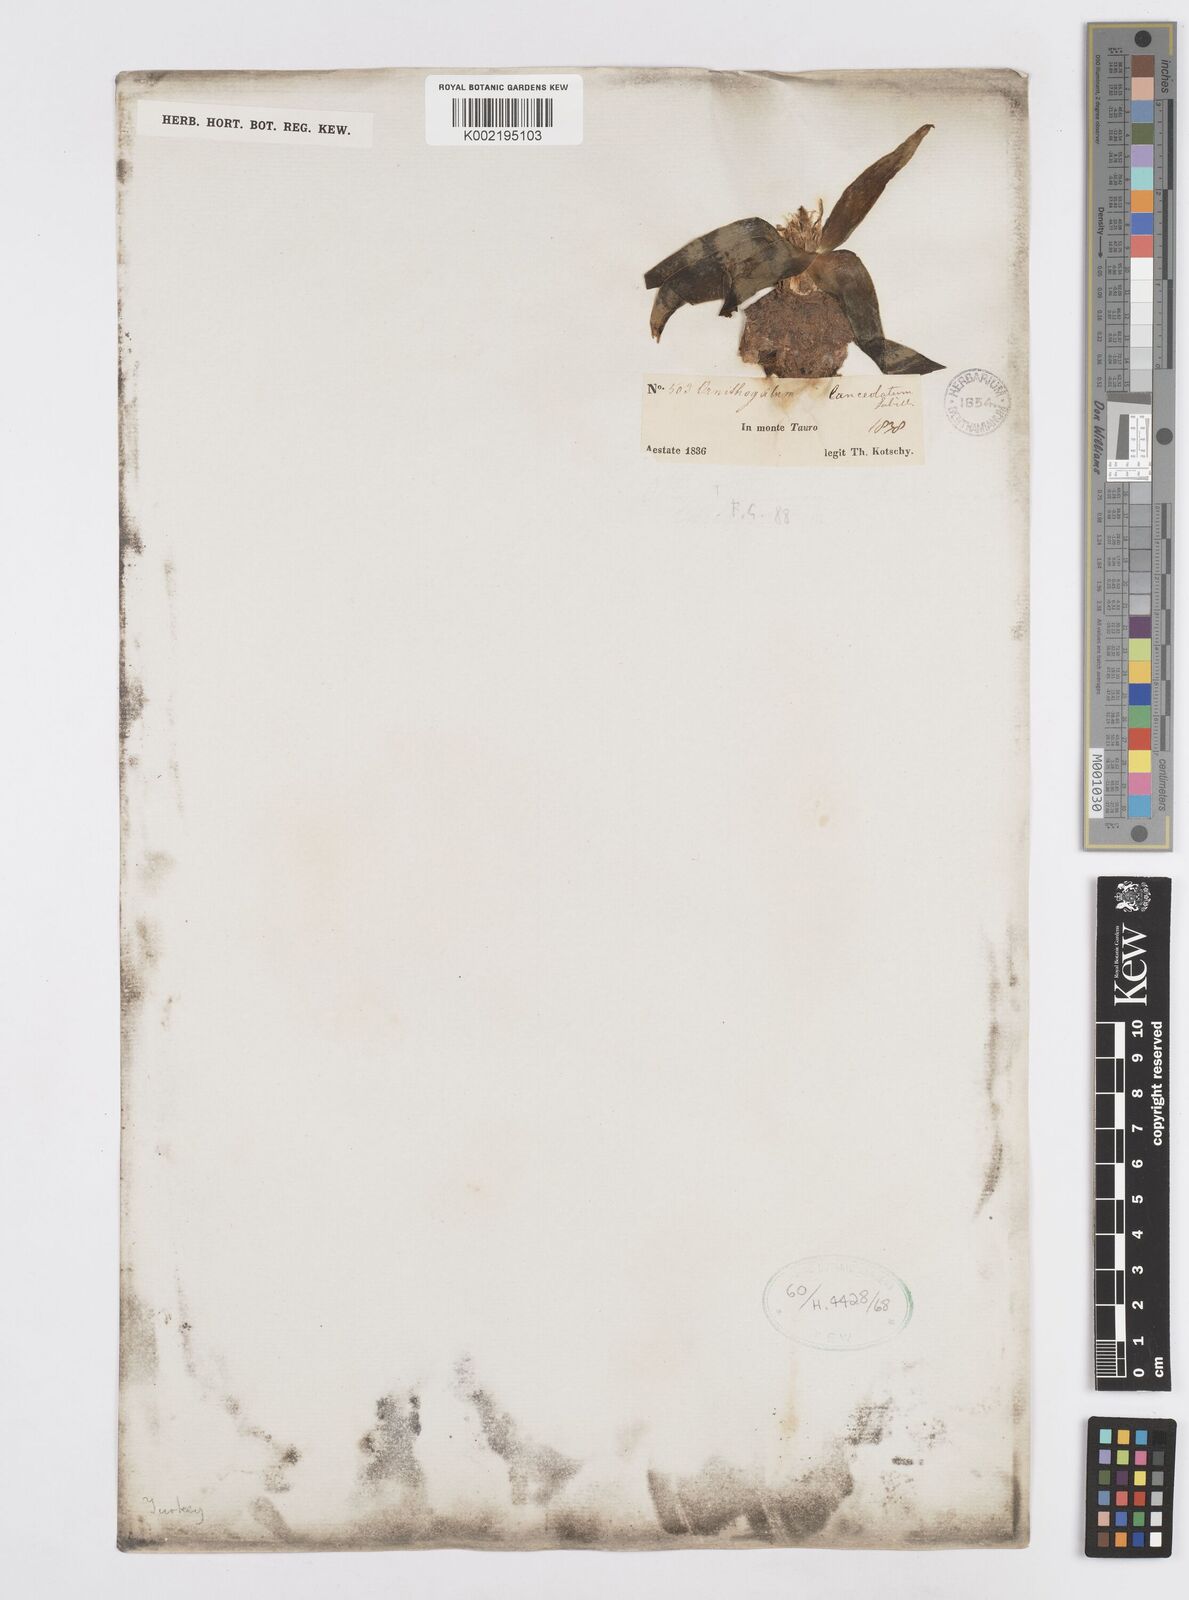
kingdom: Plantae
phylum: Tracheophyta
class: Liliopsida
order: Asparagales
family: Asparagaceae
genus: Ornithogalum
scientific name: Ornithogalum lanceolatum
